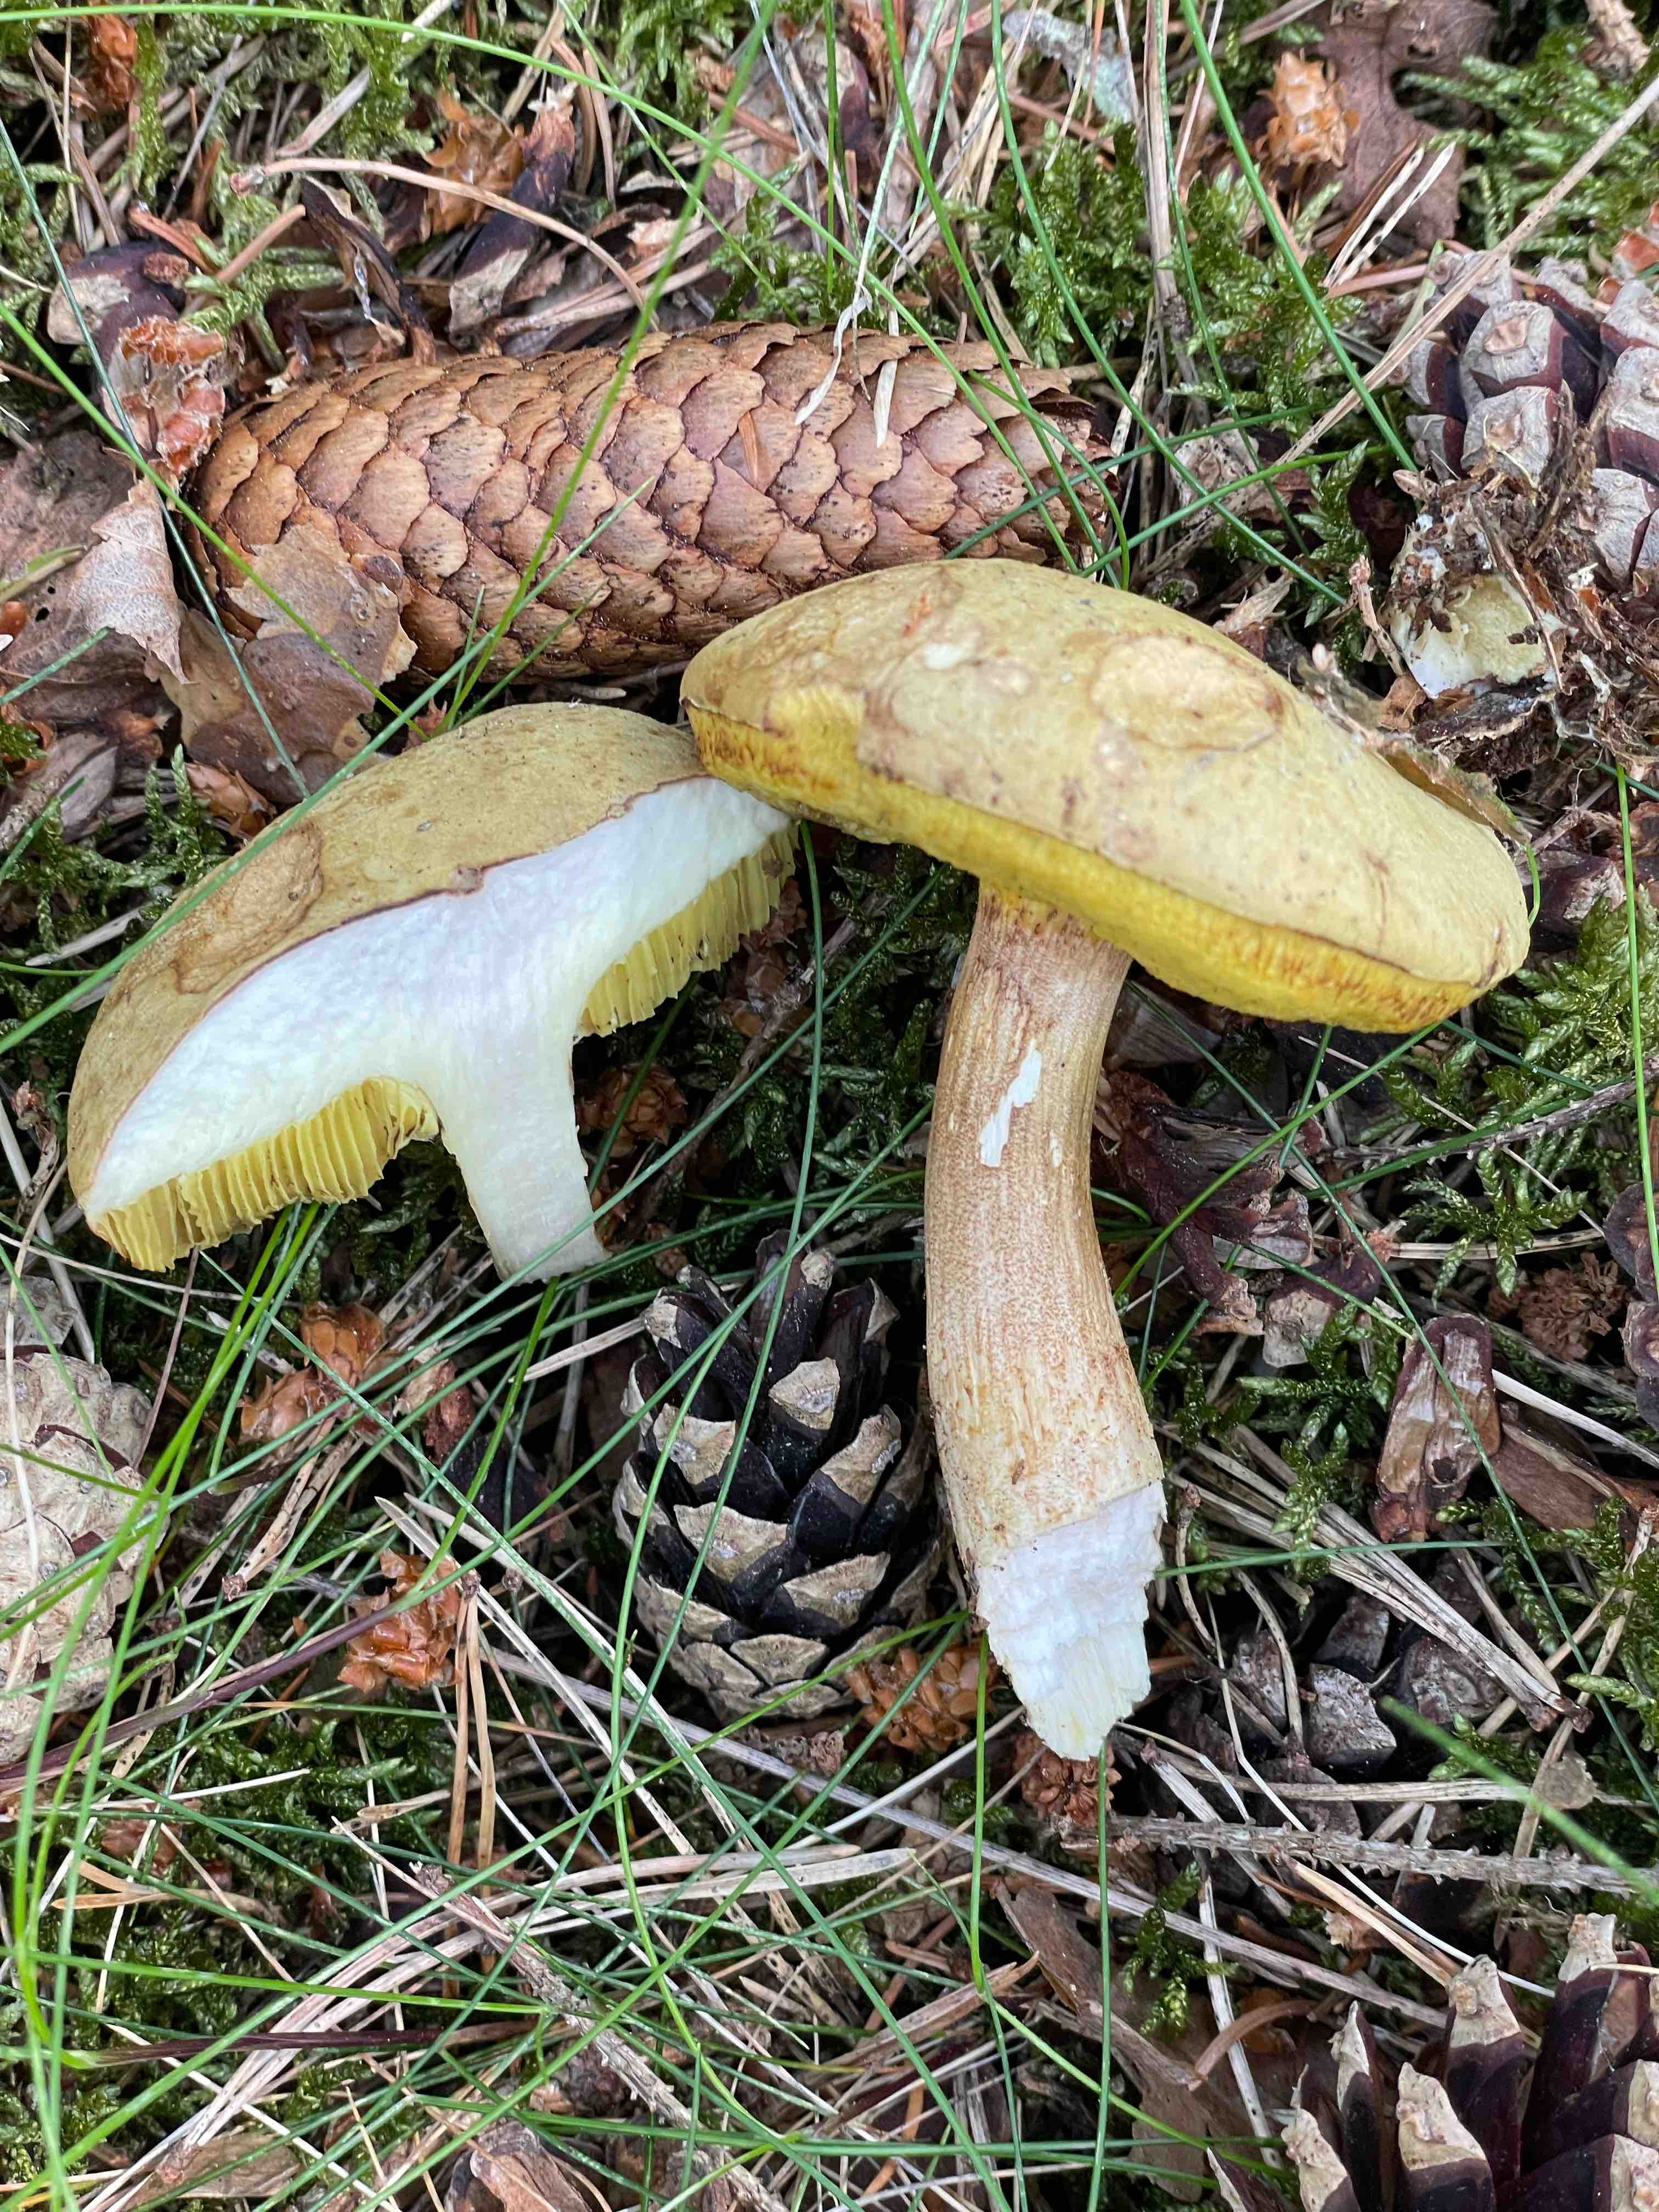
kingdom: Fungi
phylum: Basidiomycota
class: Agaricomycetes
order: Boletales
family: Boletaceae
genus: Imleria
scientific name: Imleria badia
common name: brunstokket rørhat
